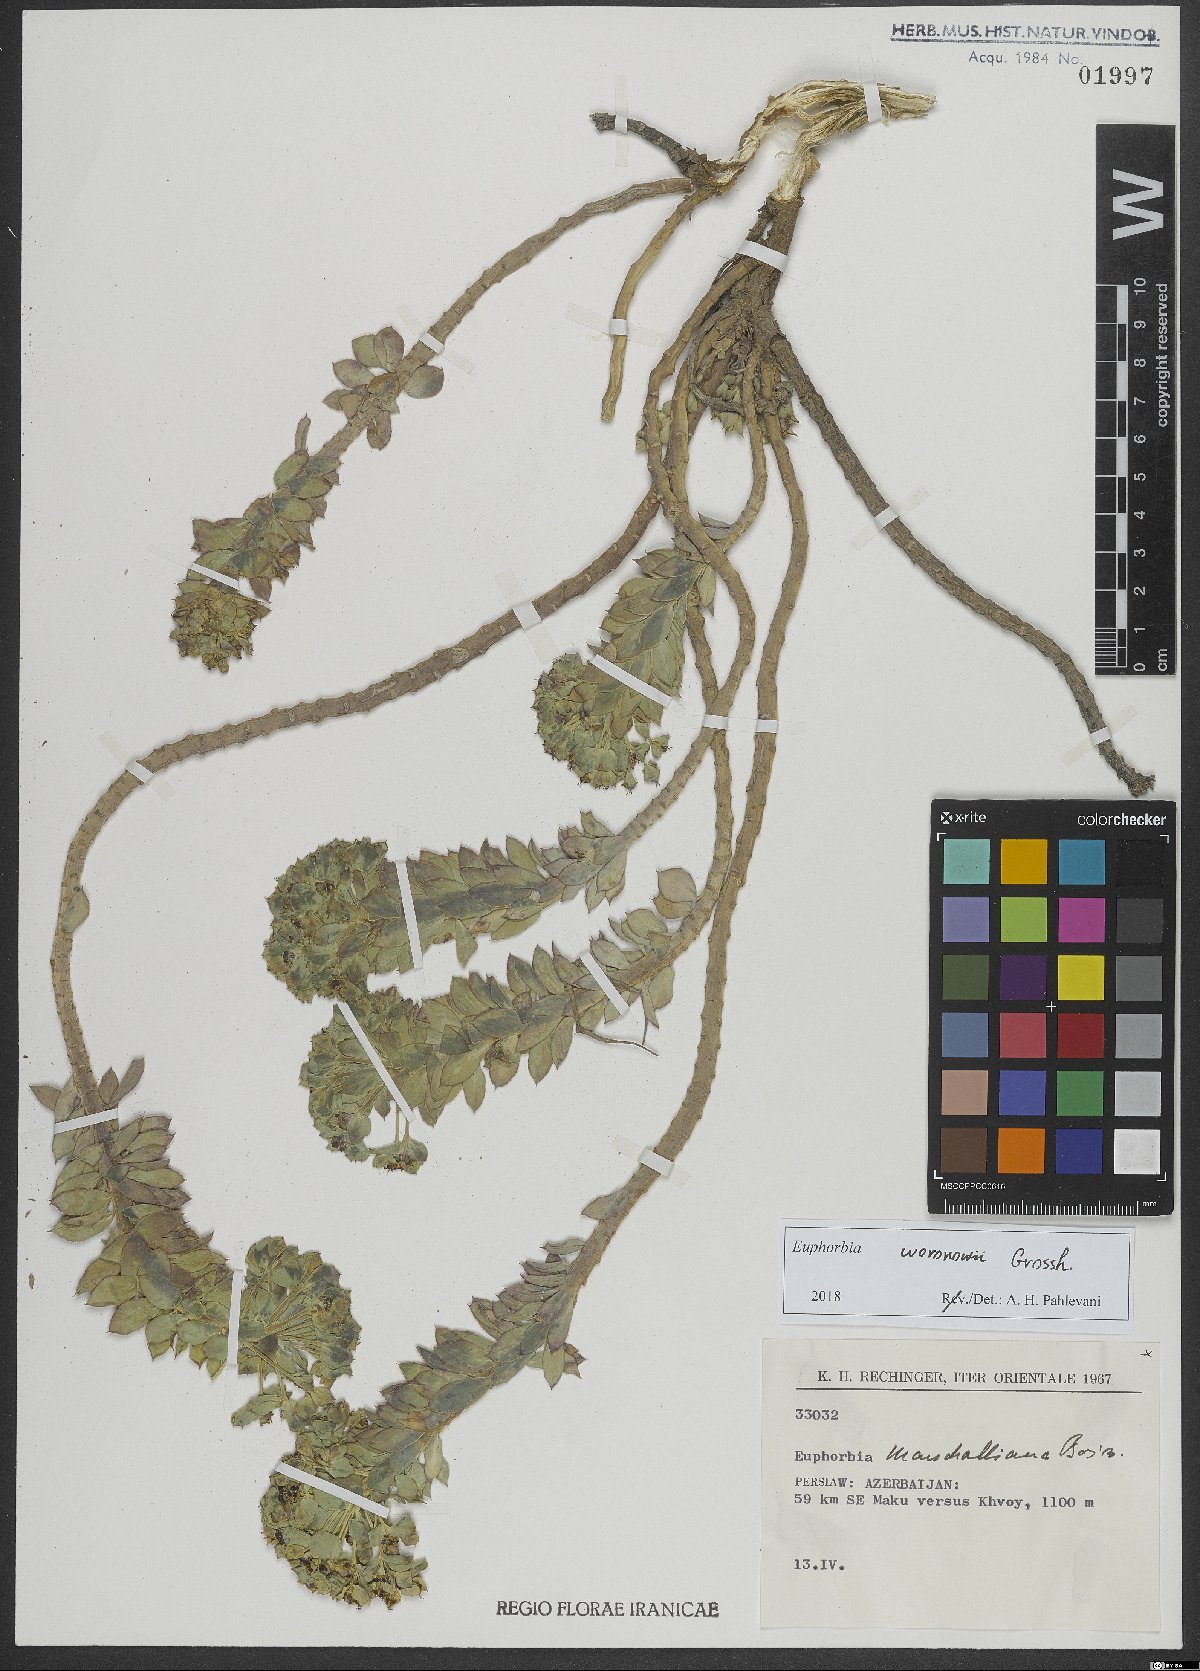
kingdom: Plantae
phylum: Tracheophyta
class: Magnoliopsida
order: Malpighiales
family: Euphorbiaceae
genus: Euphorbia
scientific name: Euphorbia marschalliana
